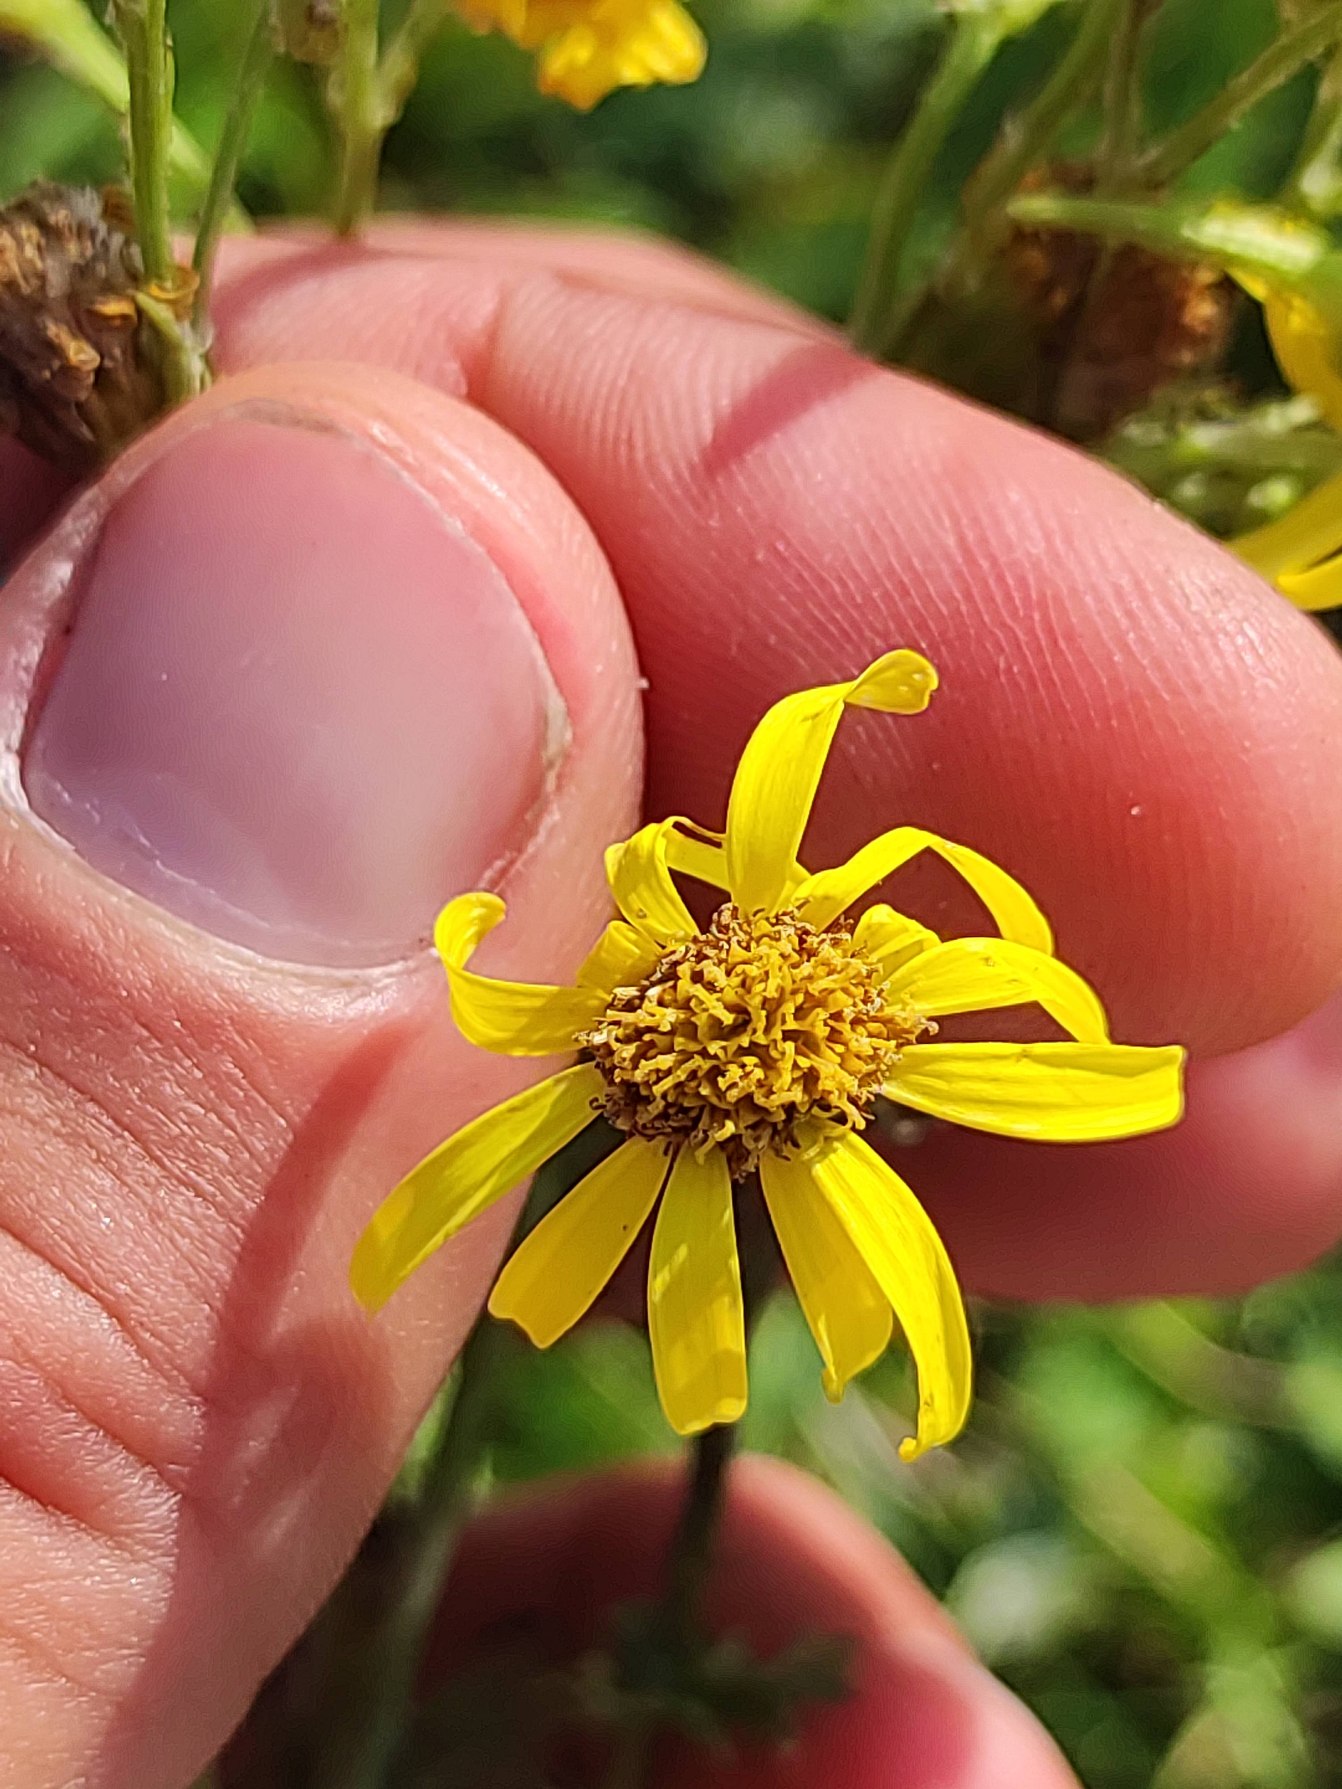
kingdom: Plantae
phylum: Tracheophyta
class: Magnoliopsida
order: Asterales
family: Asteraceae
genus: Jacobaea
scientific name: Jacobaea vulgaris
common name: Eng-brandbæger
